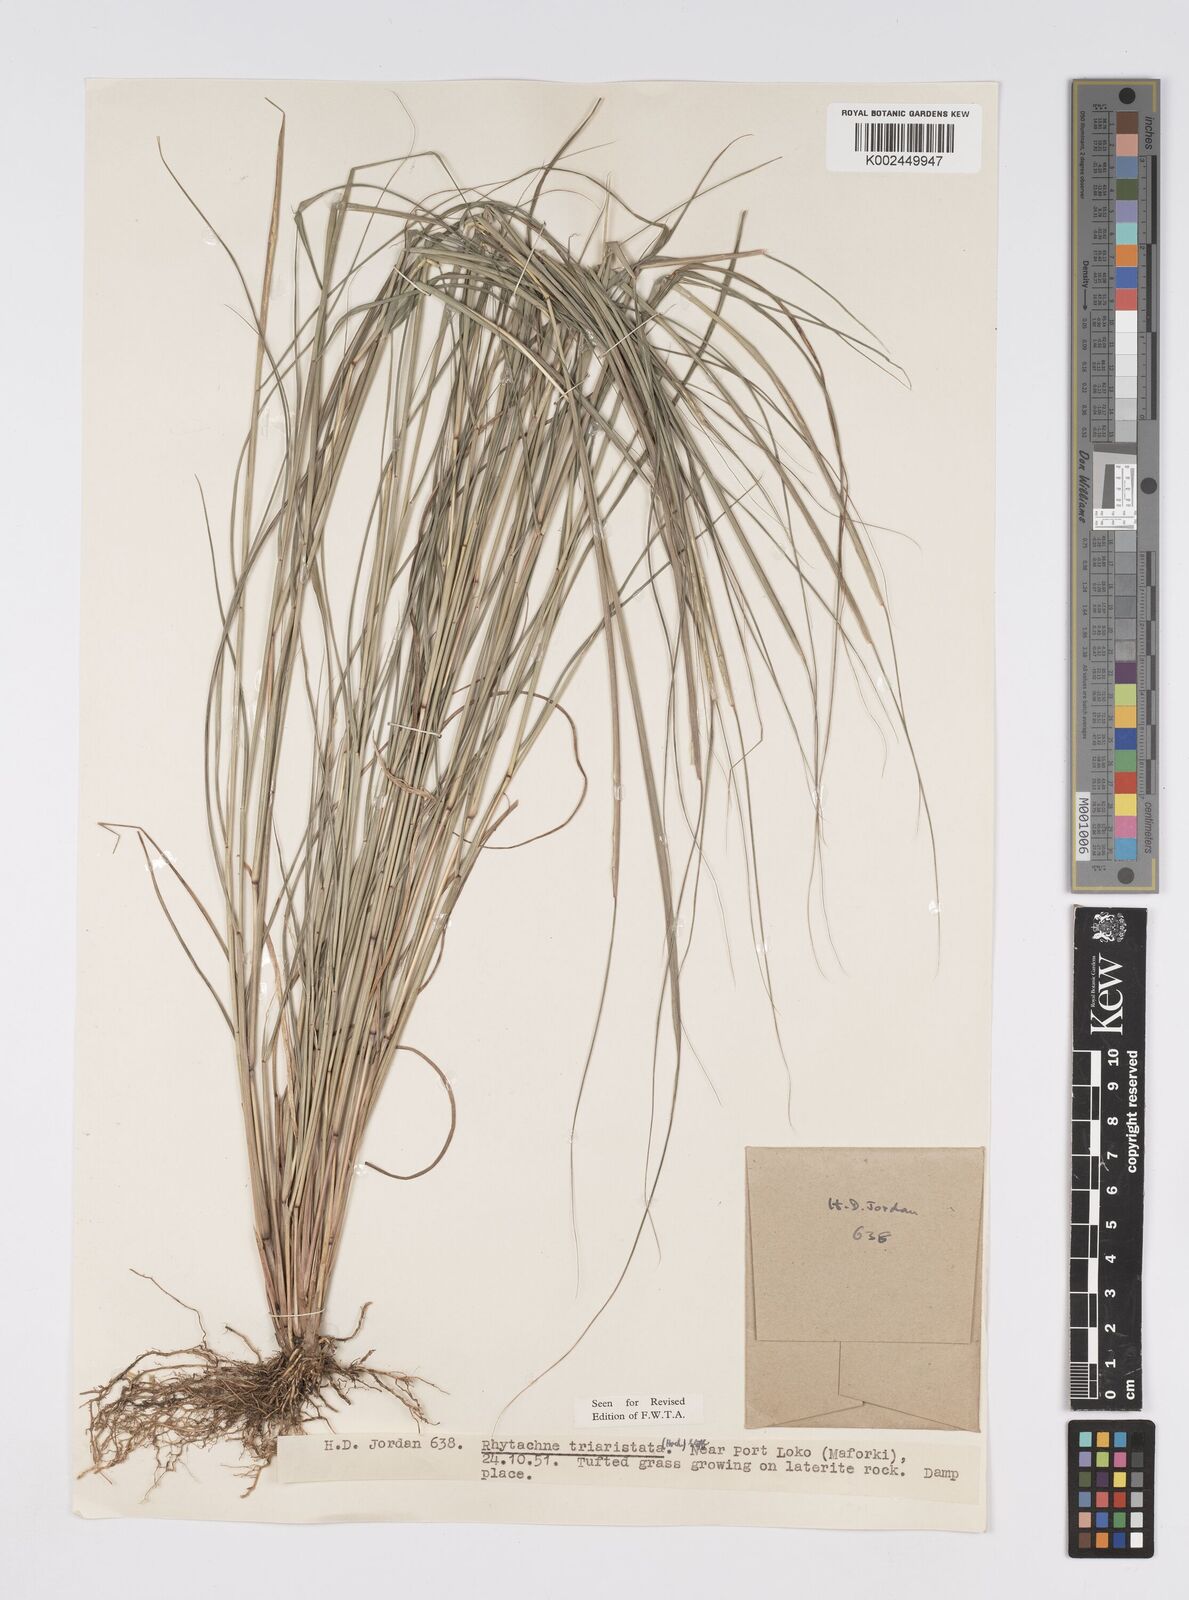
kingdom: Plantae
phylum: Tracheophyta
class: Liliopsida
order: Poales
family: Poaceae
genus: Rhytachne
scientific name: Rhytachne triaristata
